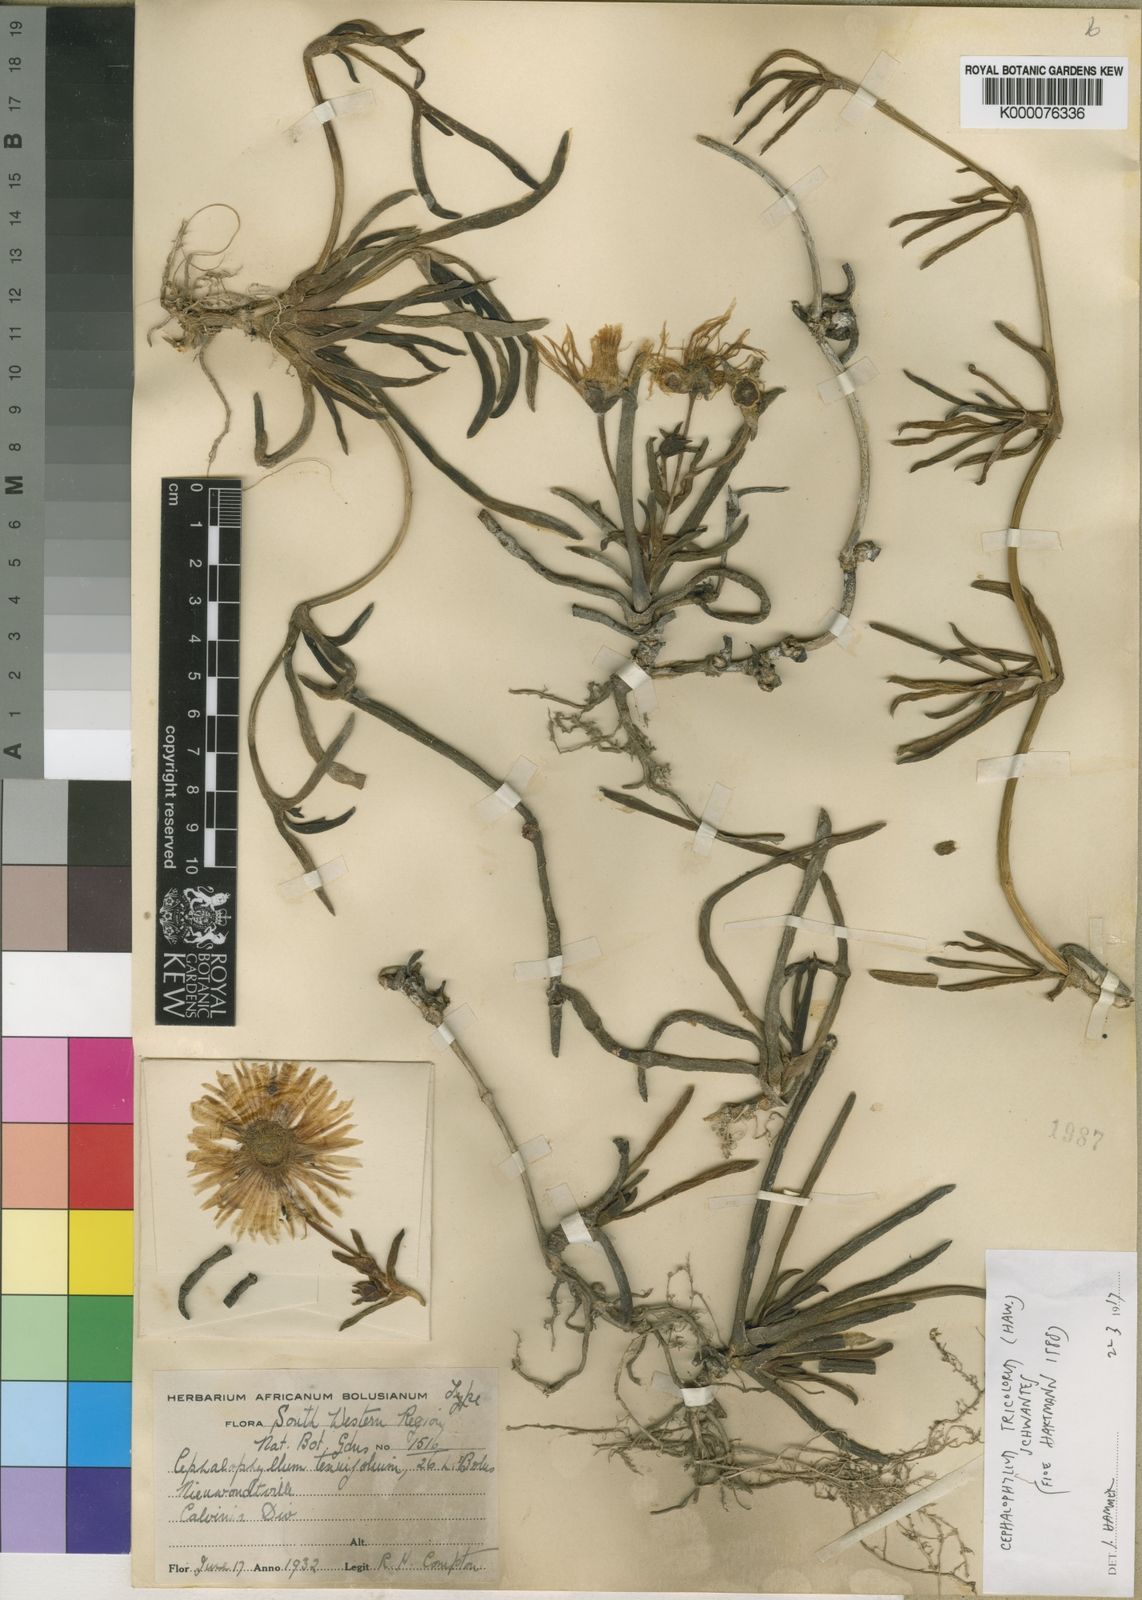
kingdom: Plantae
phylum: Tracheophyta
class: Magnoliopsida
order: Caryophyllales
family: Aizoaceae
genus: Cephalophyllum
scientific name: Cephalophyllum tricolorum
